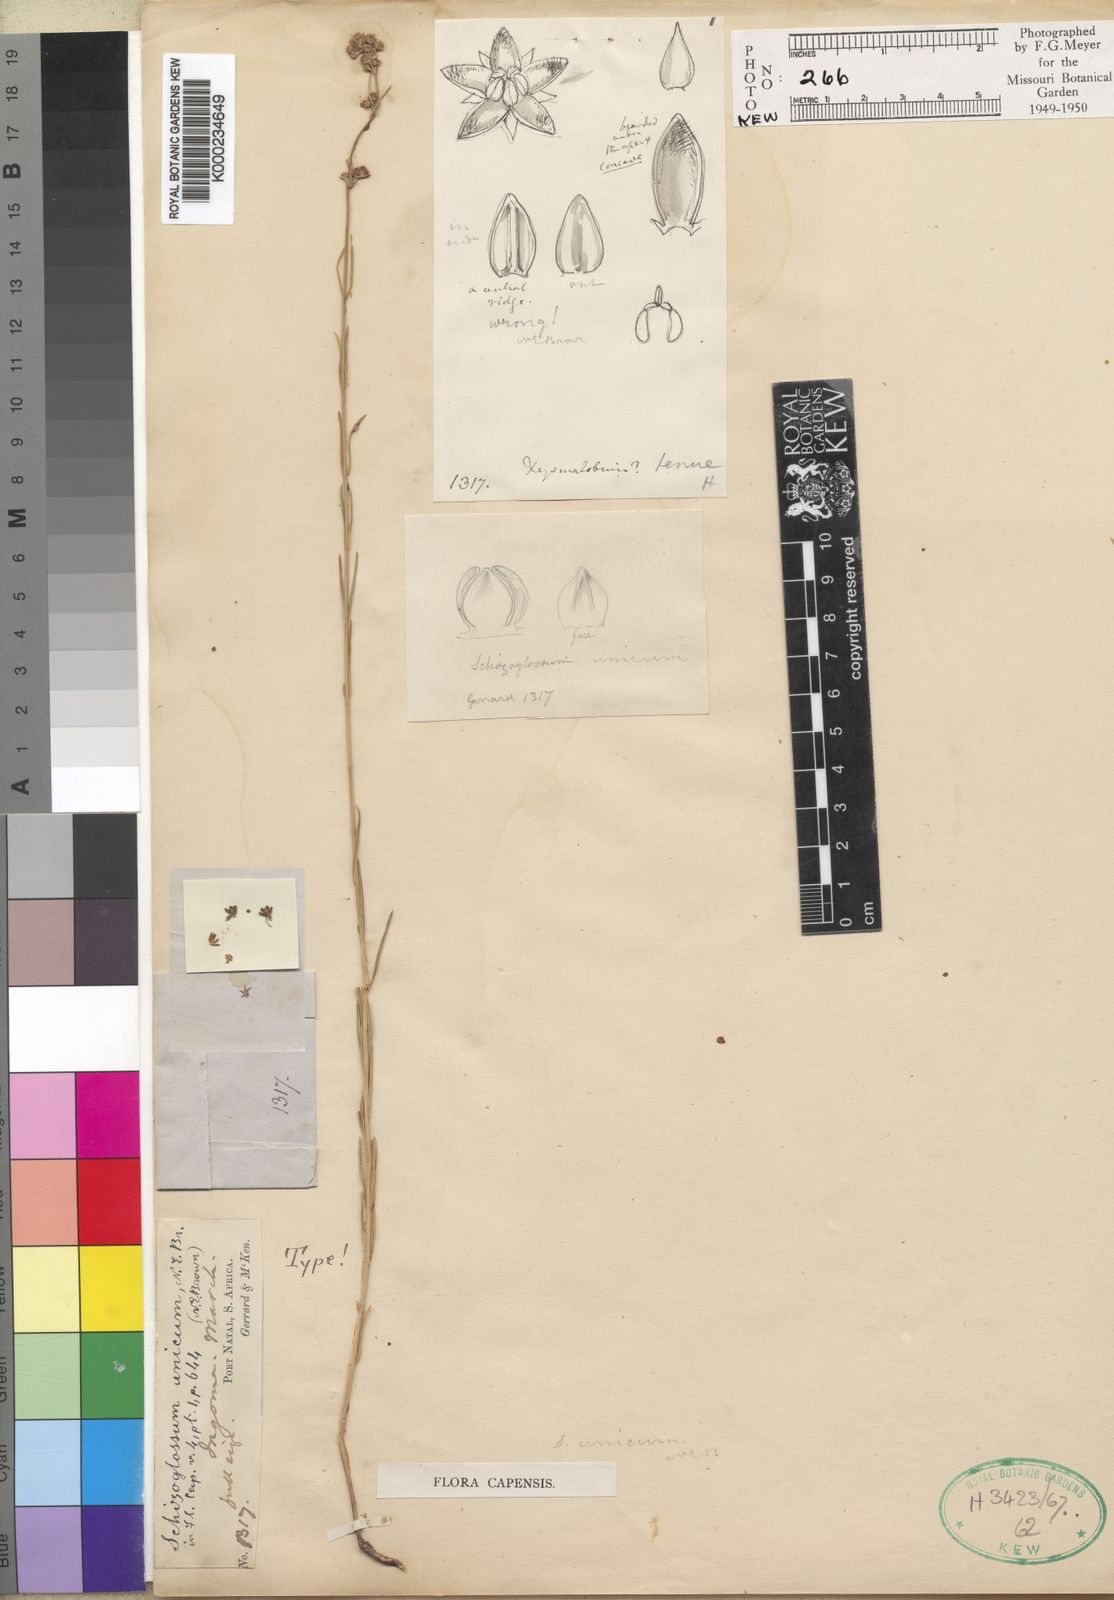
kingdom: Plantae
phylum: Tracheophyta
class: Magnoliopsida
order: Gentianales
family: Apocynaceae
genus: Aspidoglossum
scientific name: Aspidoglossum glabrescens
